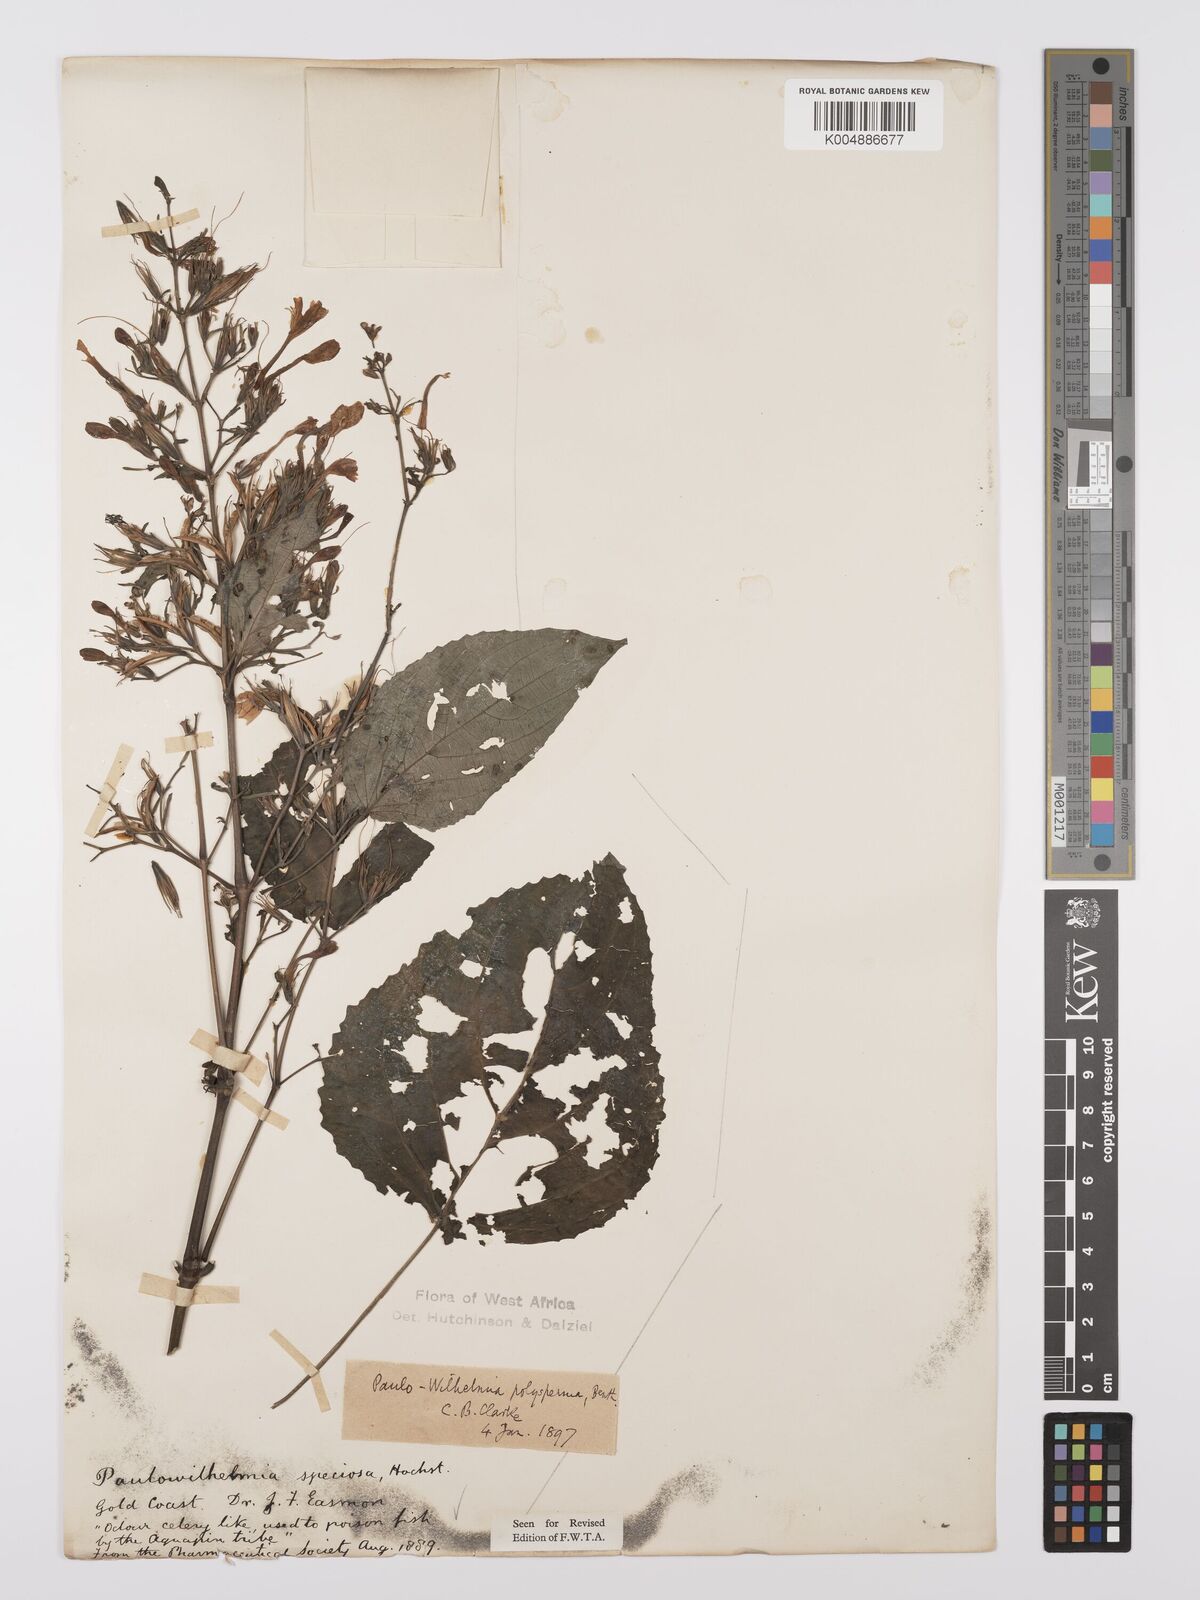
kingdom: Plantae
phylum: Tracheophyta
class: Magnoliopsida
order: Lamiales
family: Acanthaceae
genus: Eremomastax
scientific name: Eremomastax speciosa
